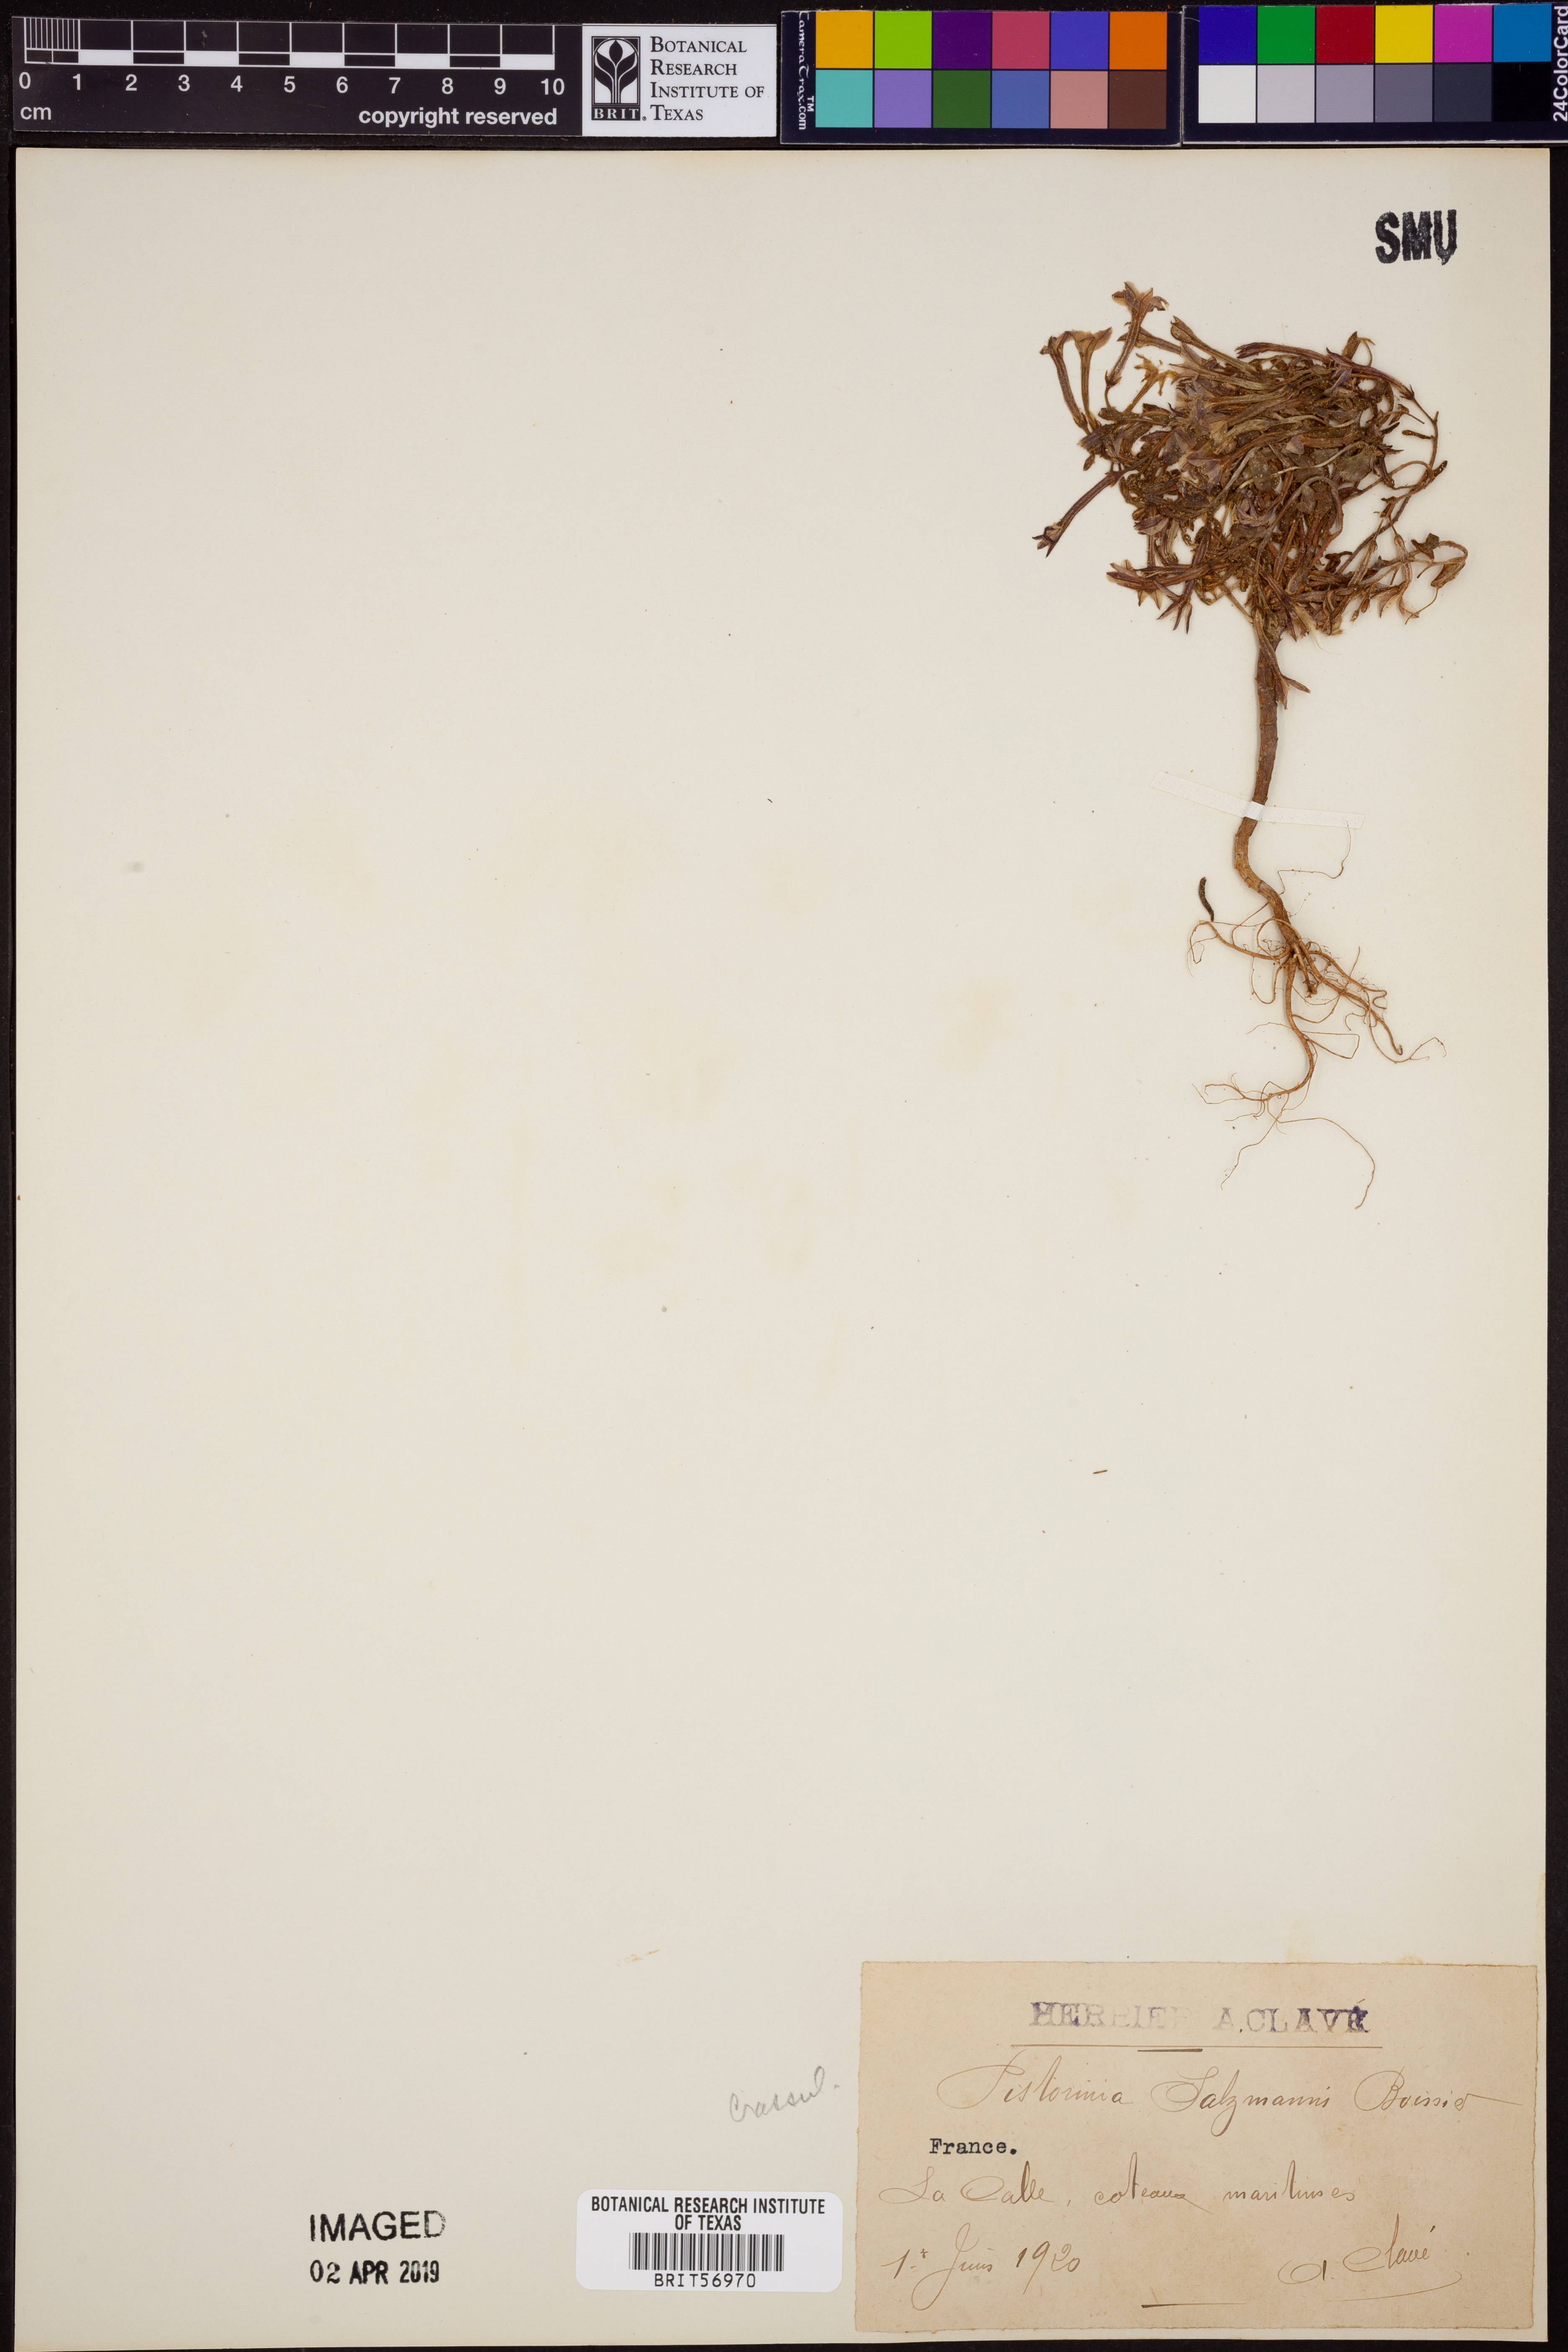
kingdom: Plantae
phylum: Tracheophyta
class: Magnoliopsida
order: Saxifragales
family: Crassulaceae
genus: Pistorinia
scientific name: Pistorinia breviflora
